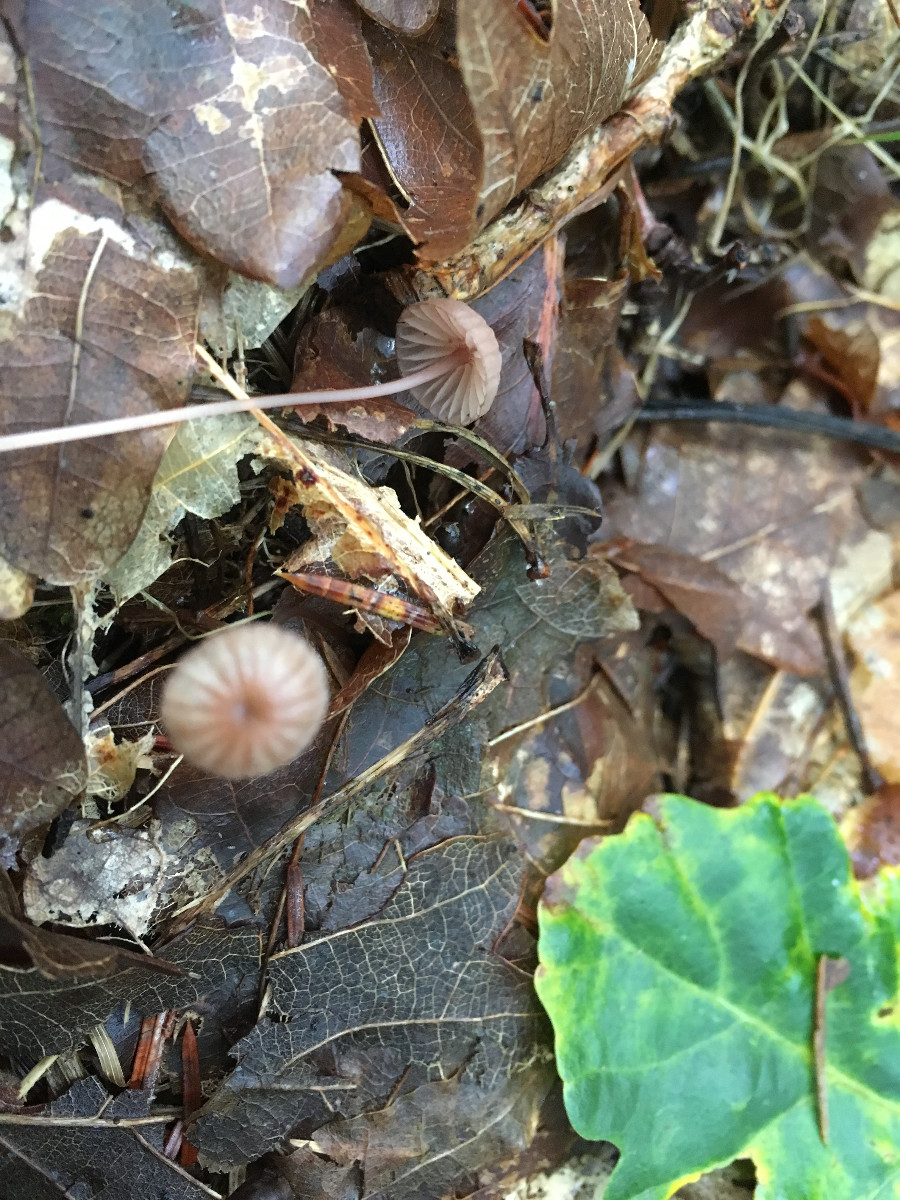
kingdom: Fungi
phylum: Basidiomycota
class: Agaricomycetes
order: Agaricales
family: Mycenaceae
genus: Mycena
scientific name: Mycena sanguinolenta
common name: rødmælket huesvamp
